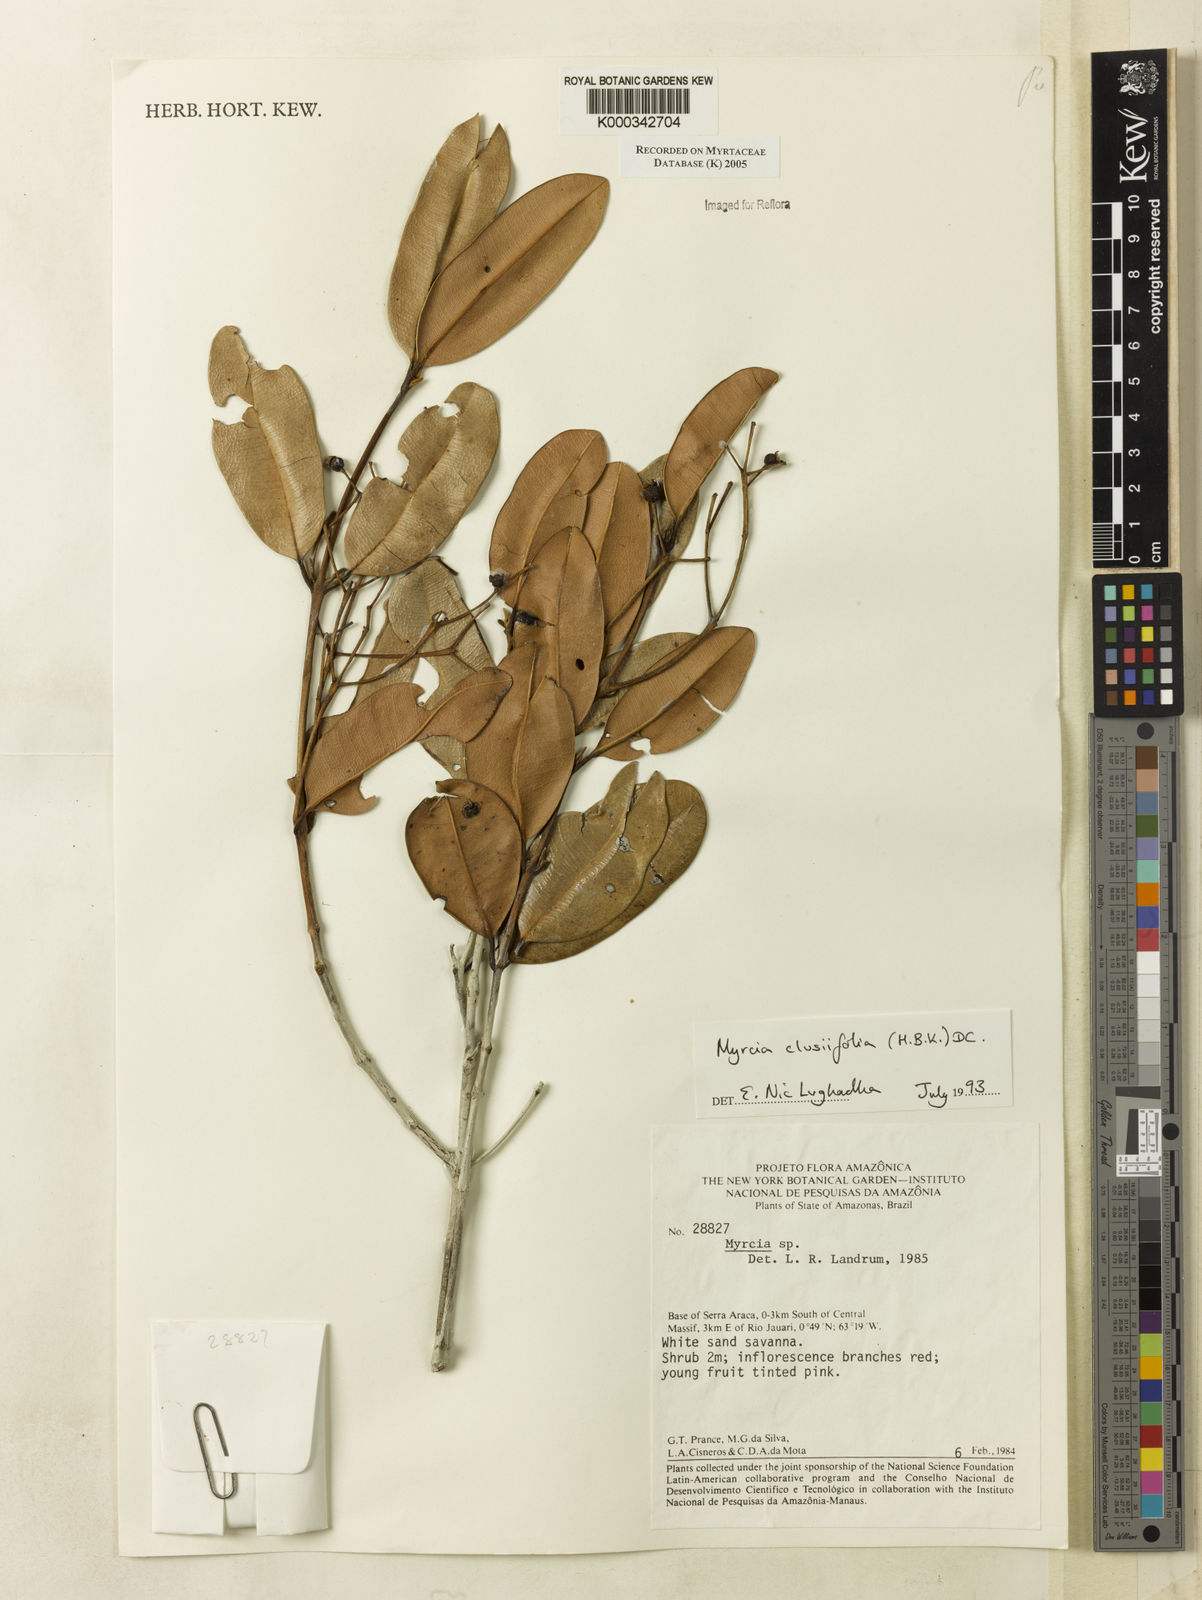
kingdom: Plantae
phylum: Tracheophyta
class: Magnoliopsida
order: Myrtales
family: Myrtaceae
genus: Myrcia
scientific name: Myrcia clusiifolia
